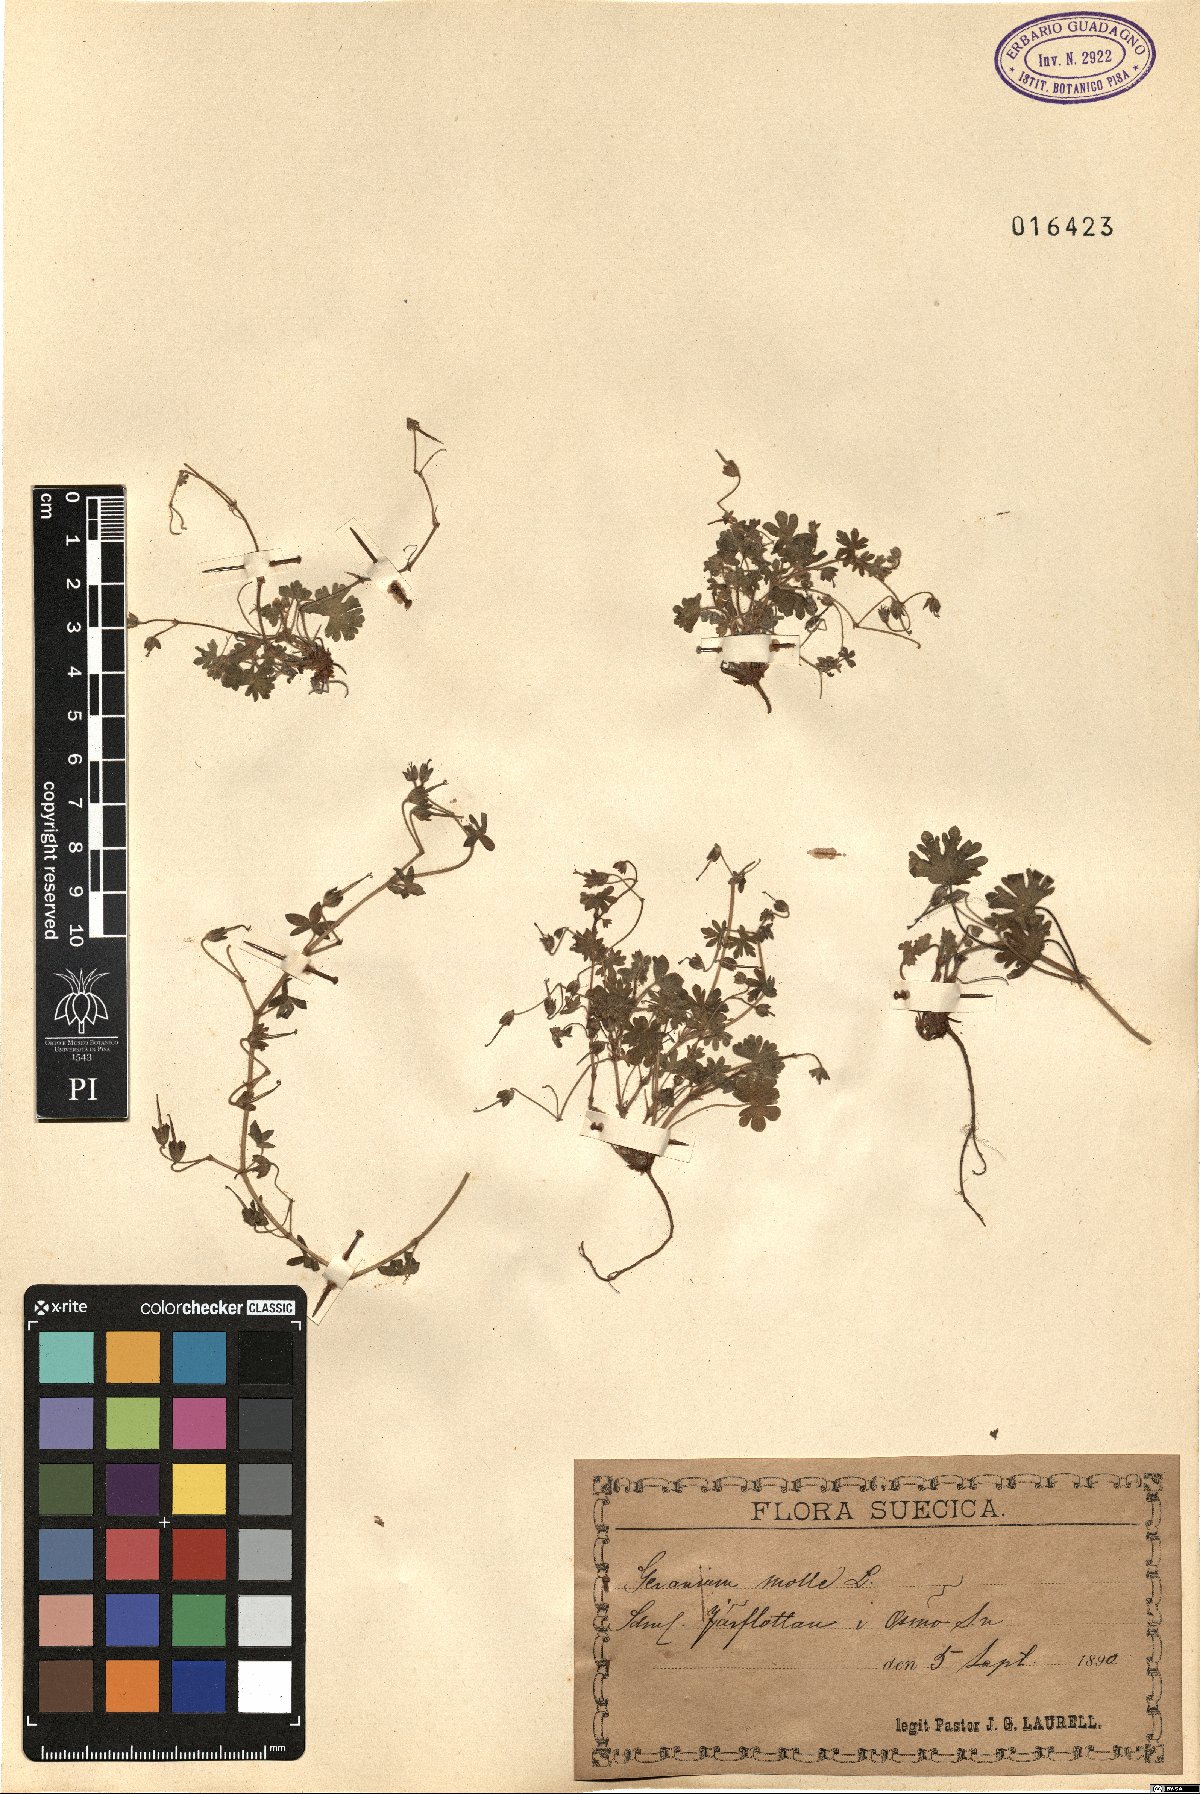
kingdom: Plantae
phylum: Tracheophyta
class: Magnoliopsida
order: Geraniales
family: Geraniaceae
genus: Geranium
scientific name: Geranium molle
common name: Dove's-foot crane's-bill
